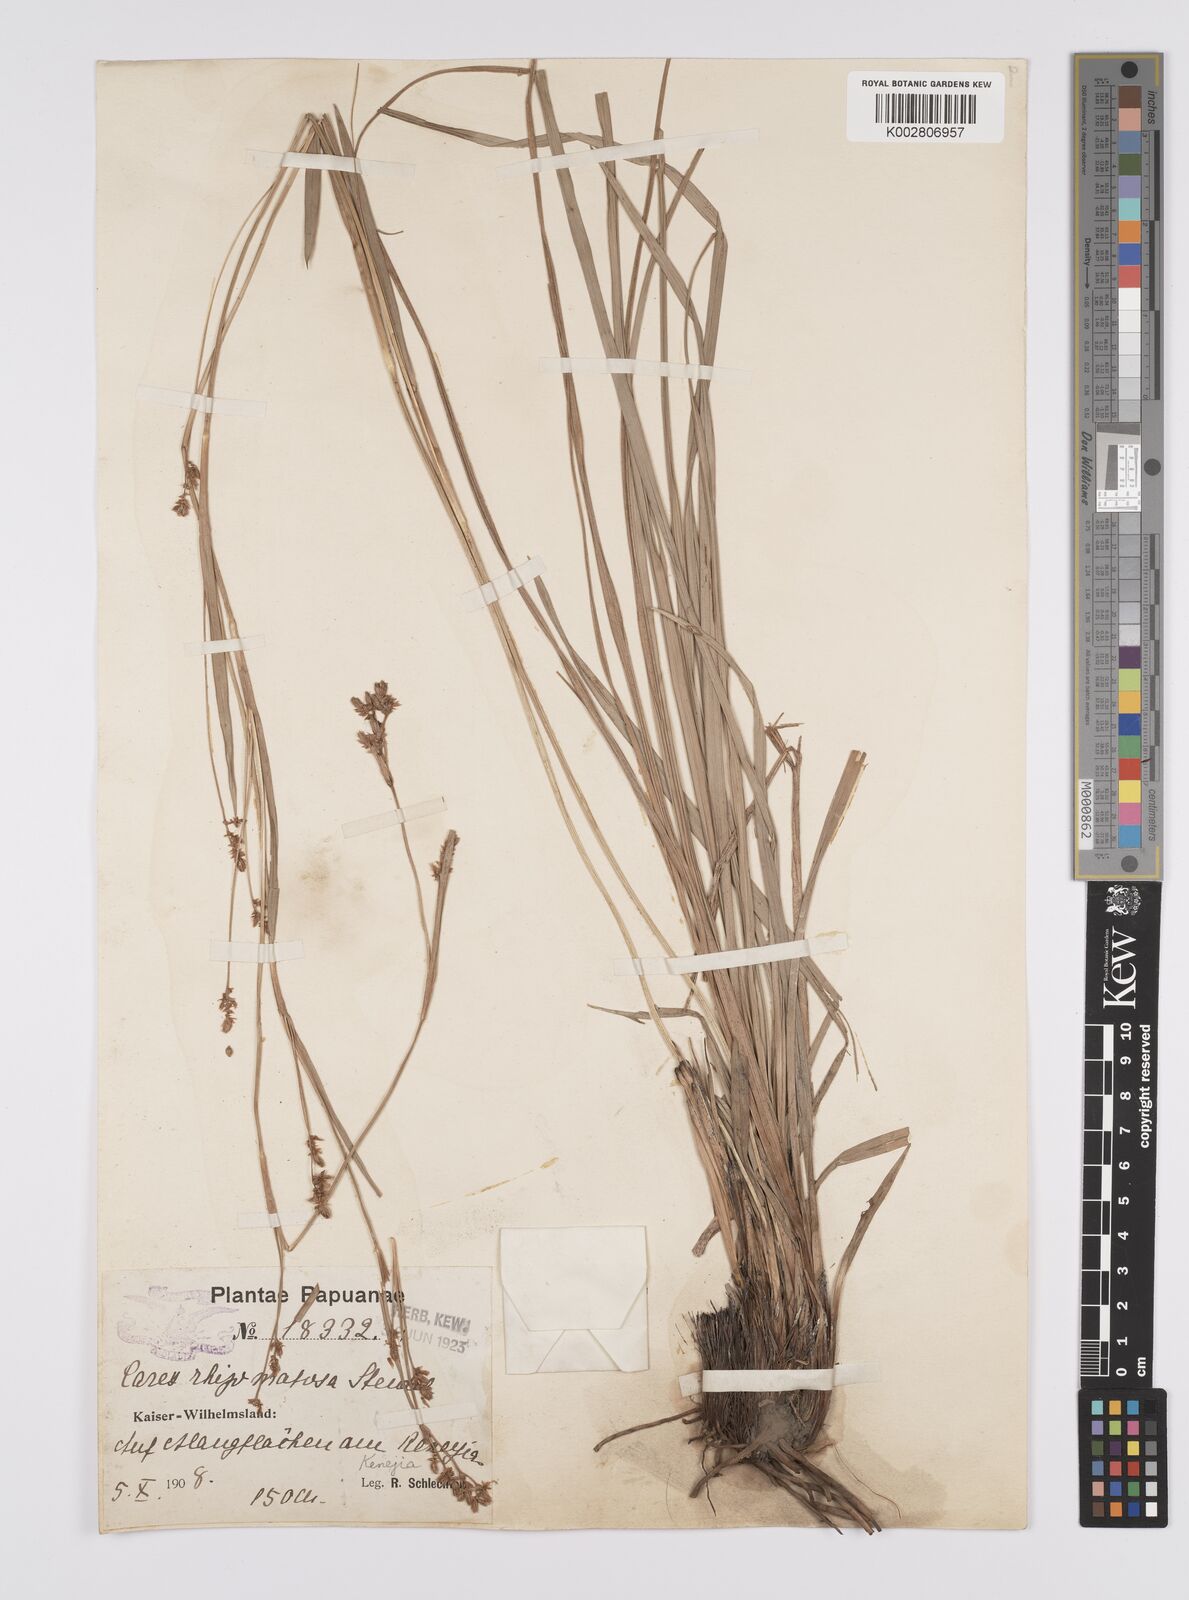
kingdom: Plantae
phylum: Tracheophyta
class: Liliopsida
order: Poales
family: Cyperaceae
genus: Carex
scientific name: Carex oligostachya
